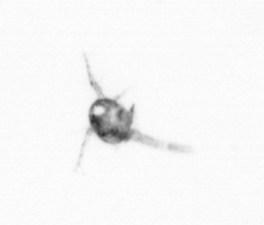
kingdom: Animalia
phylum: Arthropoda
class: Copepoda
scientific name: Copepoda
